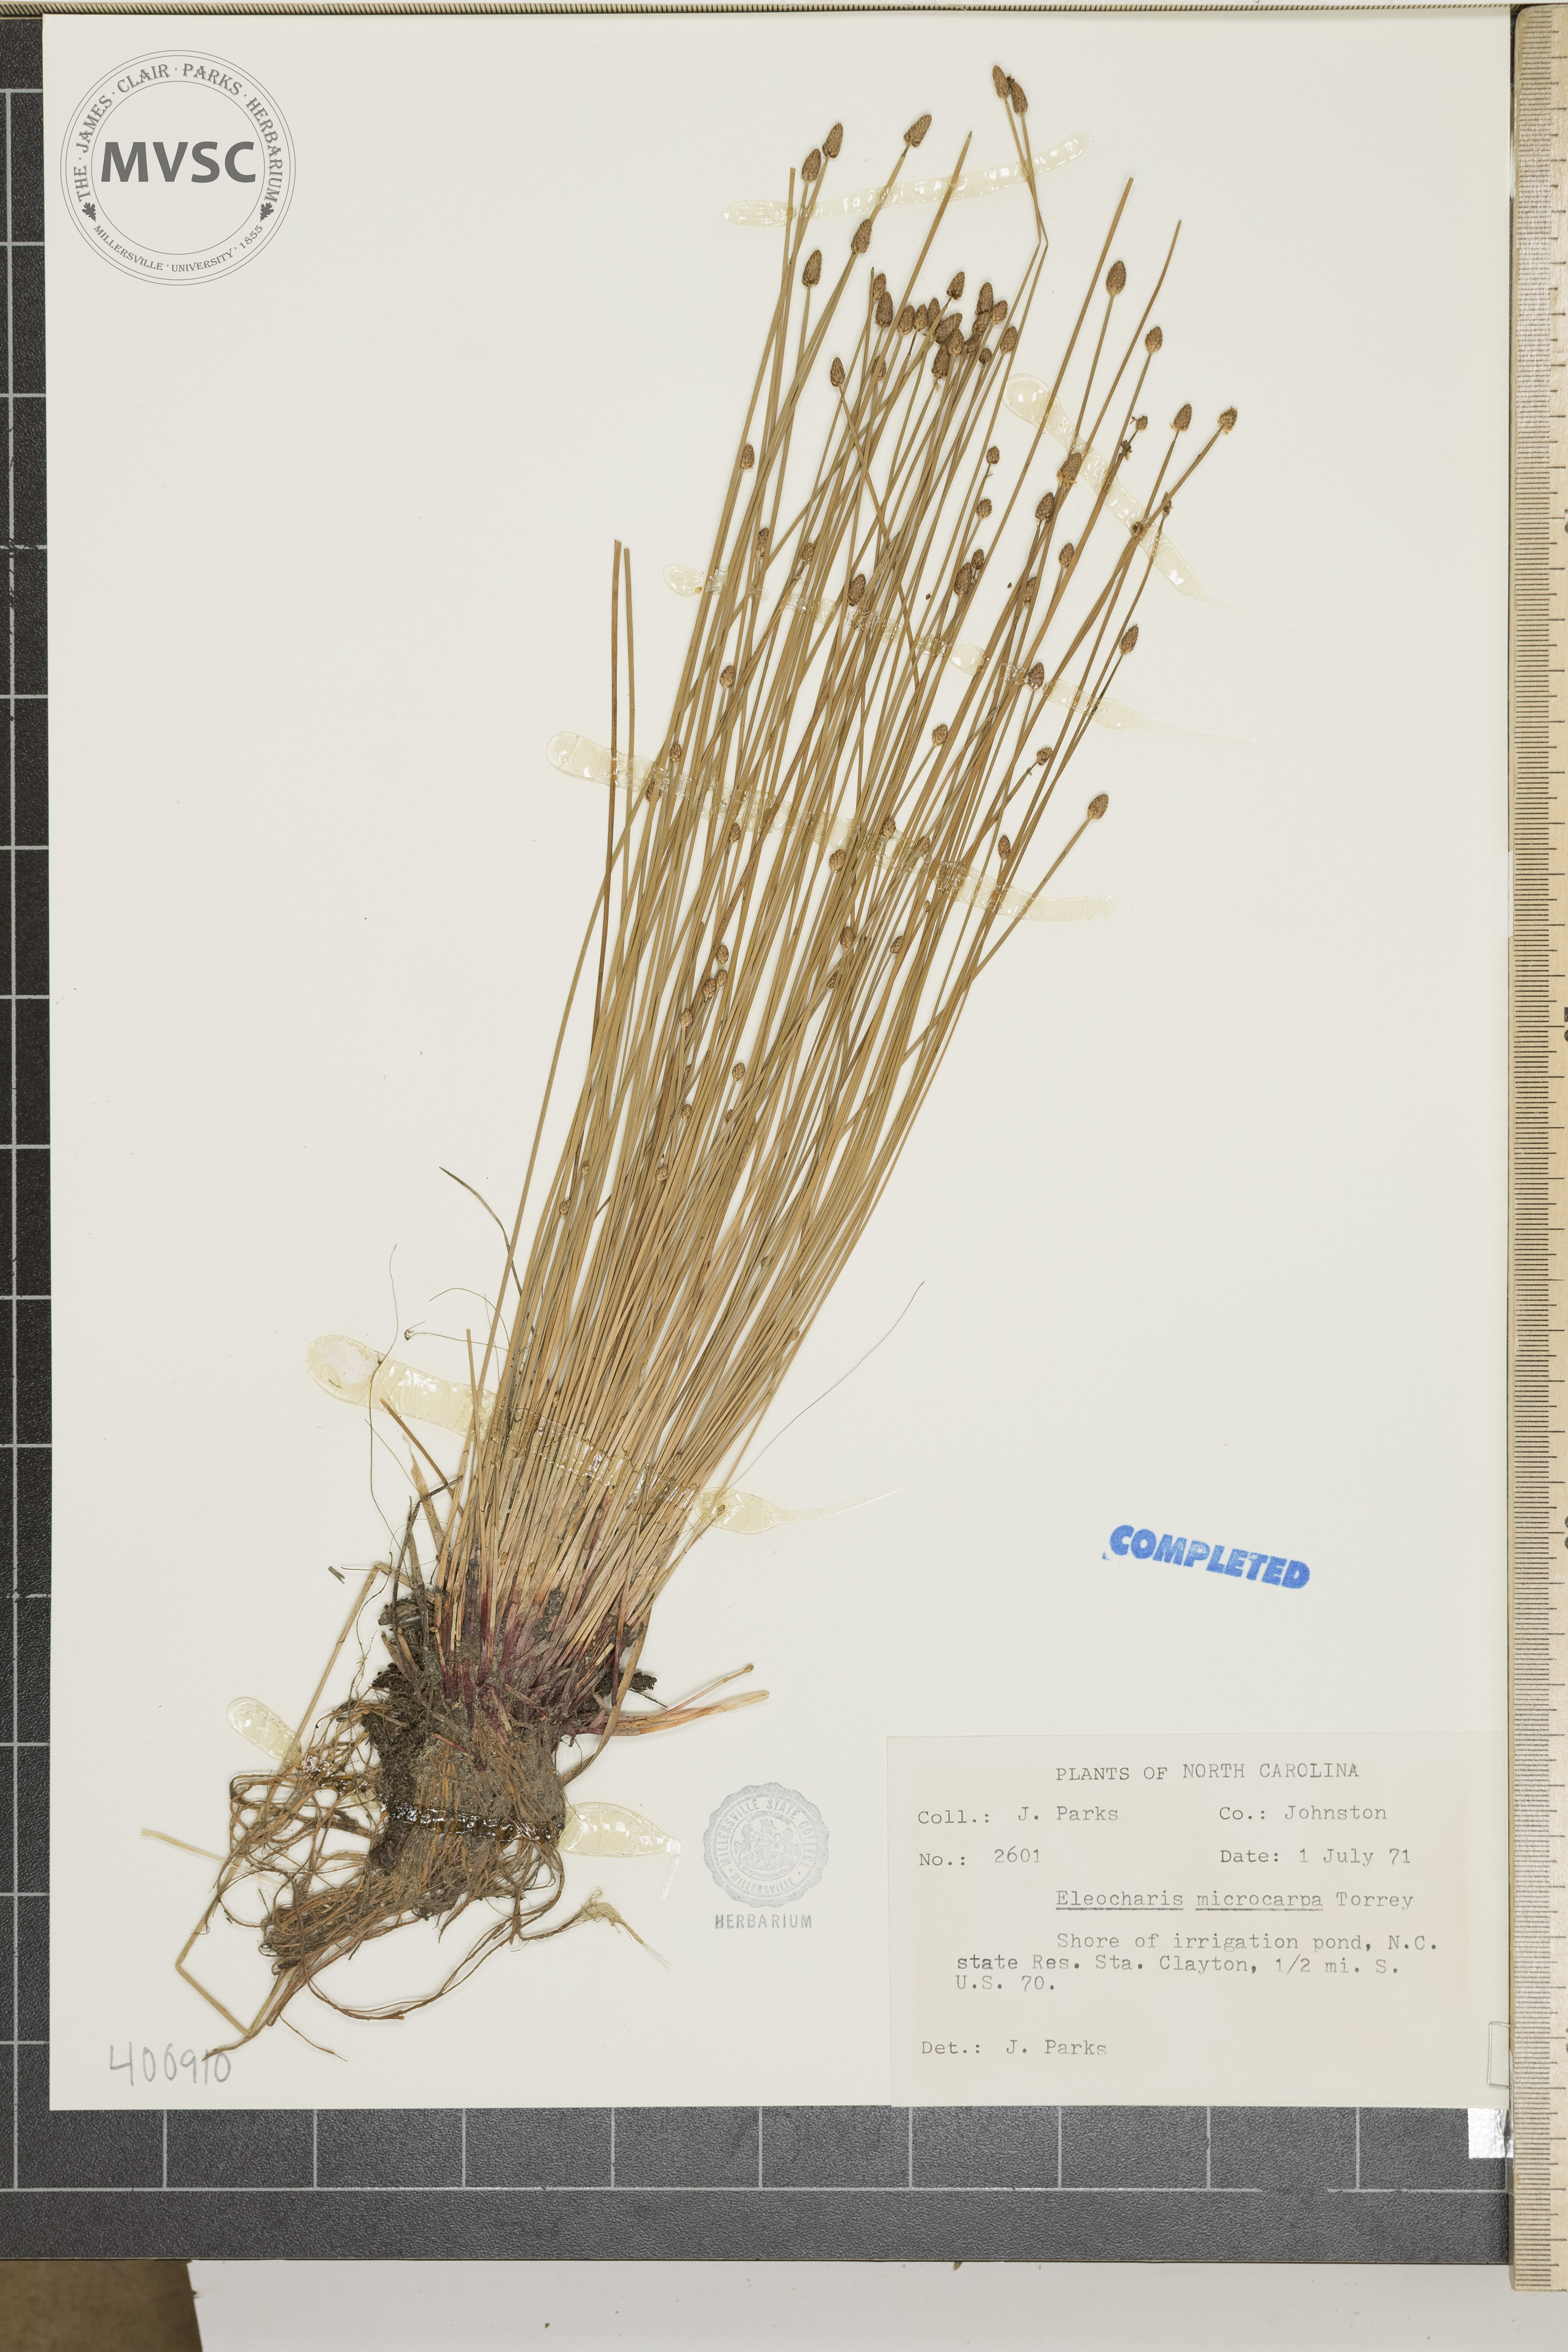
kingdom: Plantae
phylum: Tracheophyta
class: Liliopsida
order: Poales
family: Cyperaceae
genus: Eleocharis
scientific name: Eleocharis microcarpa
